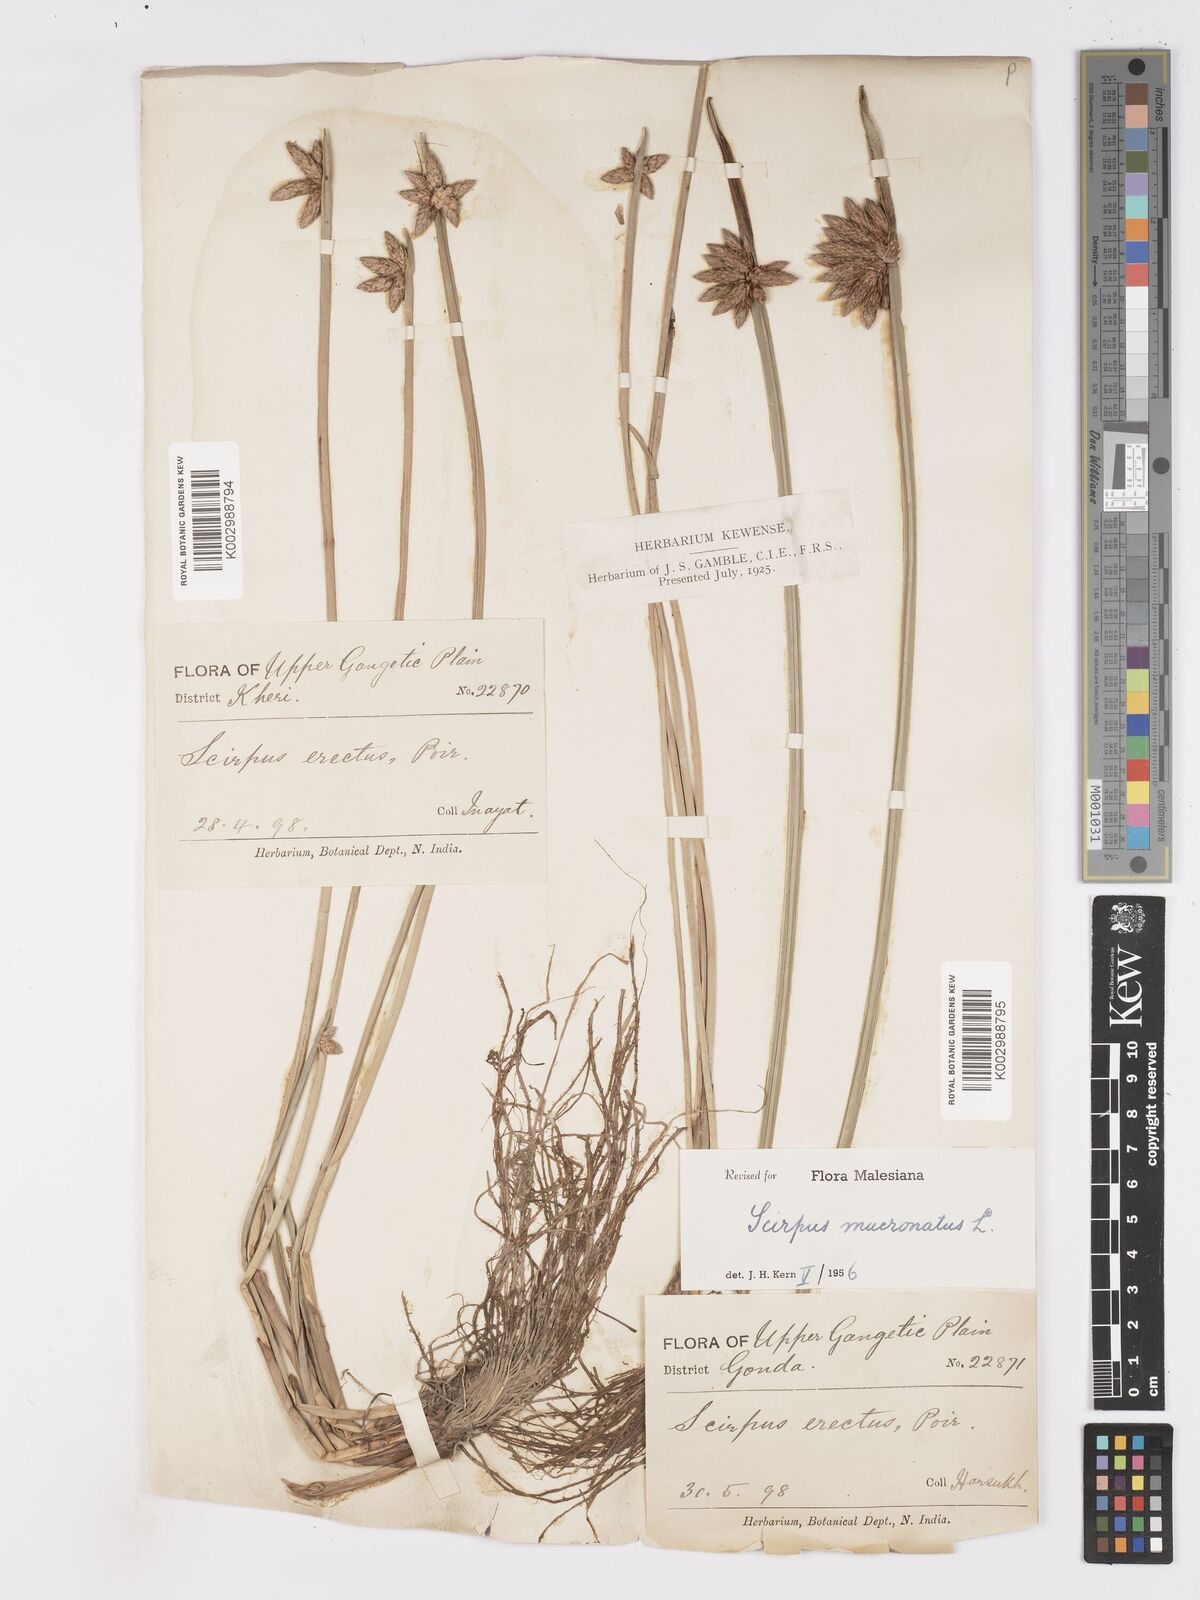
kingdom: Plantae
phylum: Tracheophyta
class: Liliopsida
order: Poales
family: Cyperaceae
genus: Schoenoplectiella
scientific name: Schoenoplectiella mucronata
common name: Bog bulrush
